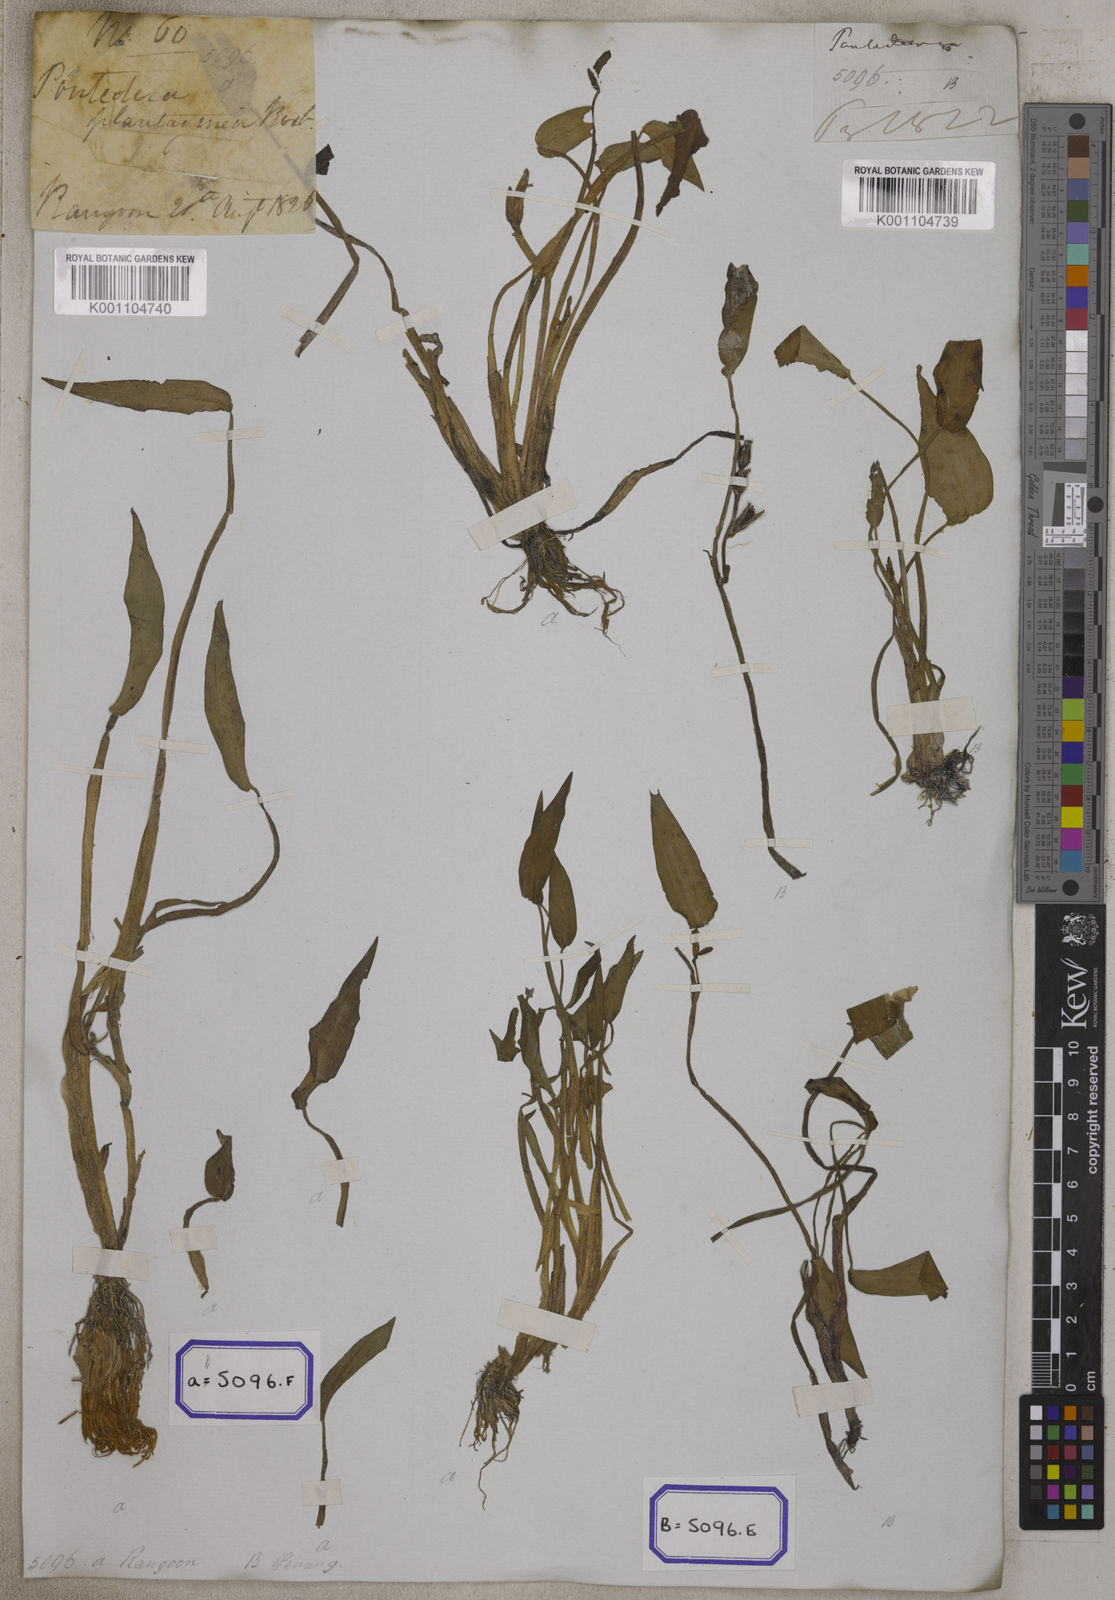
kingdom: Plantae
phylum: Tracheophyta
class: Liliopsida
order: Commelinales
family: Pontederiaceae
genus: Pontederia
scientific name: Pontederia plantaginea
